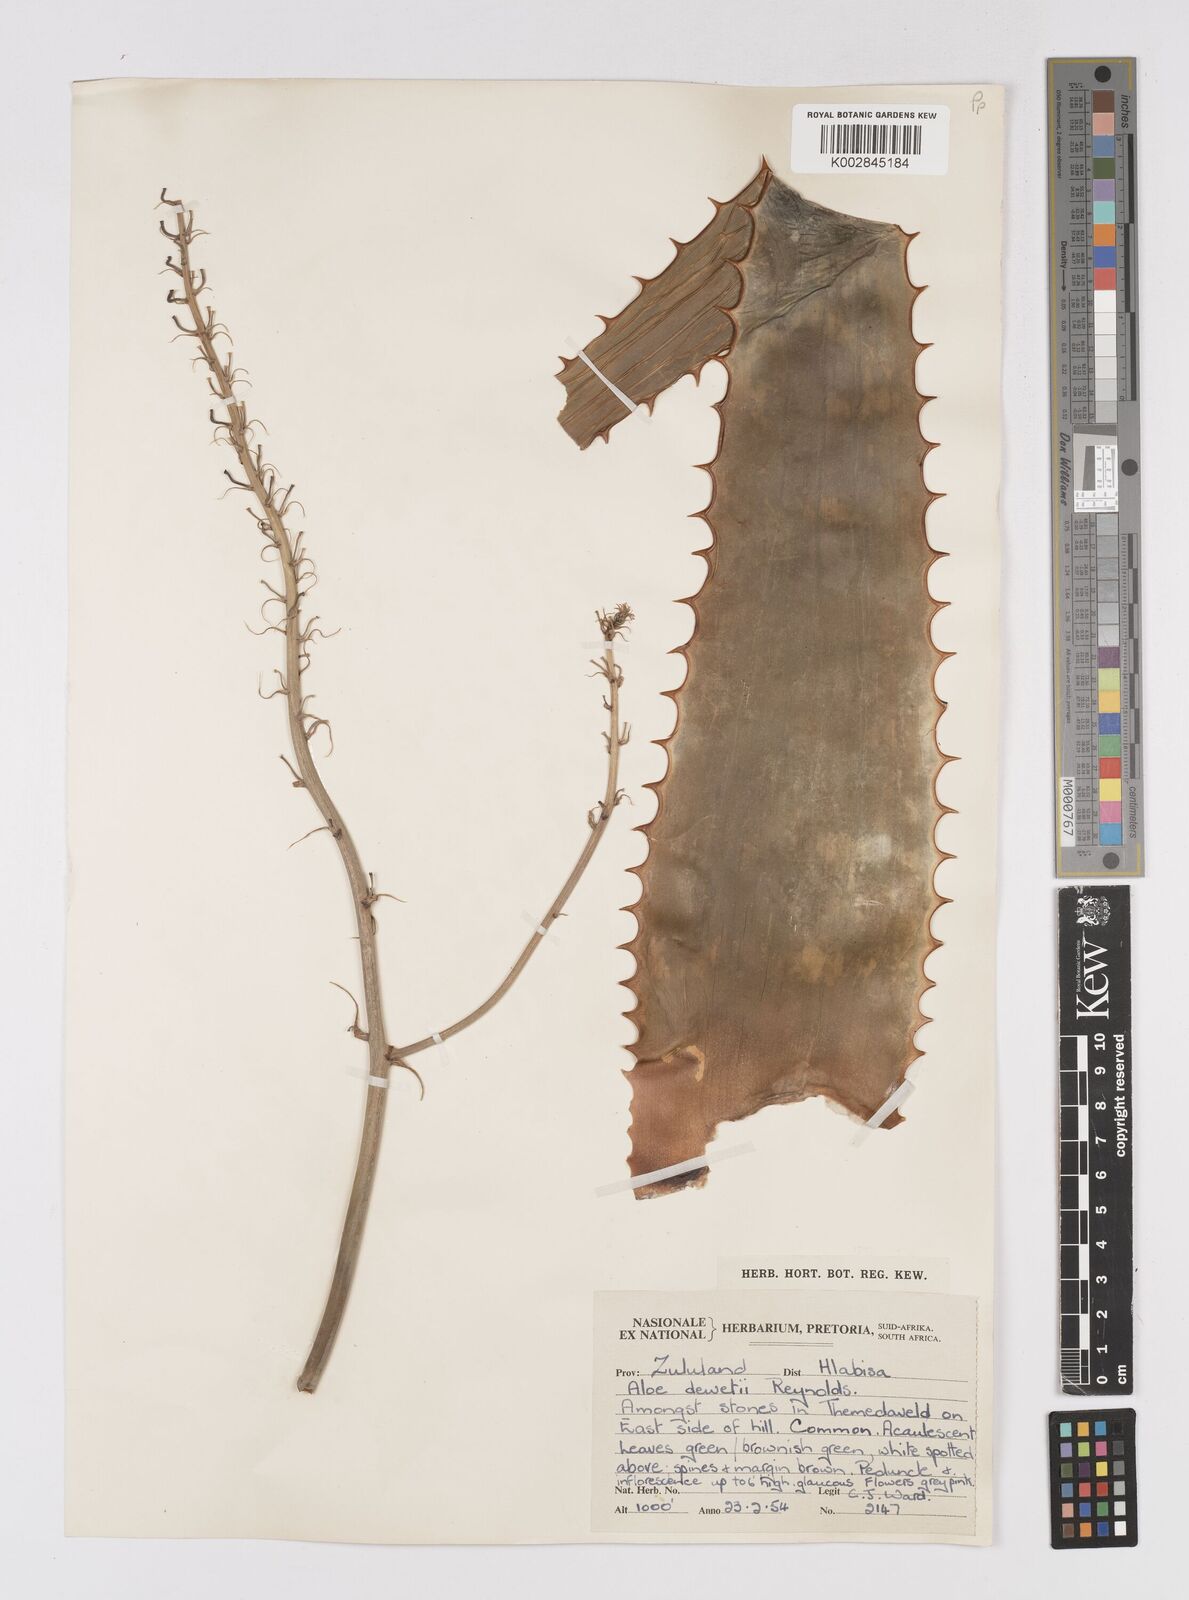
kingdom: Plantae
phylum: Tracheophyta
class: Liliopsida
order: Asparagales
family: Asphodelaceae
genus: Aloe
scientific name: Aloe dewetii
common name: De wet's aloe
